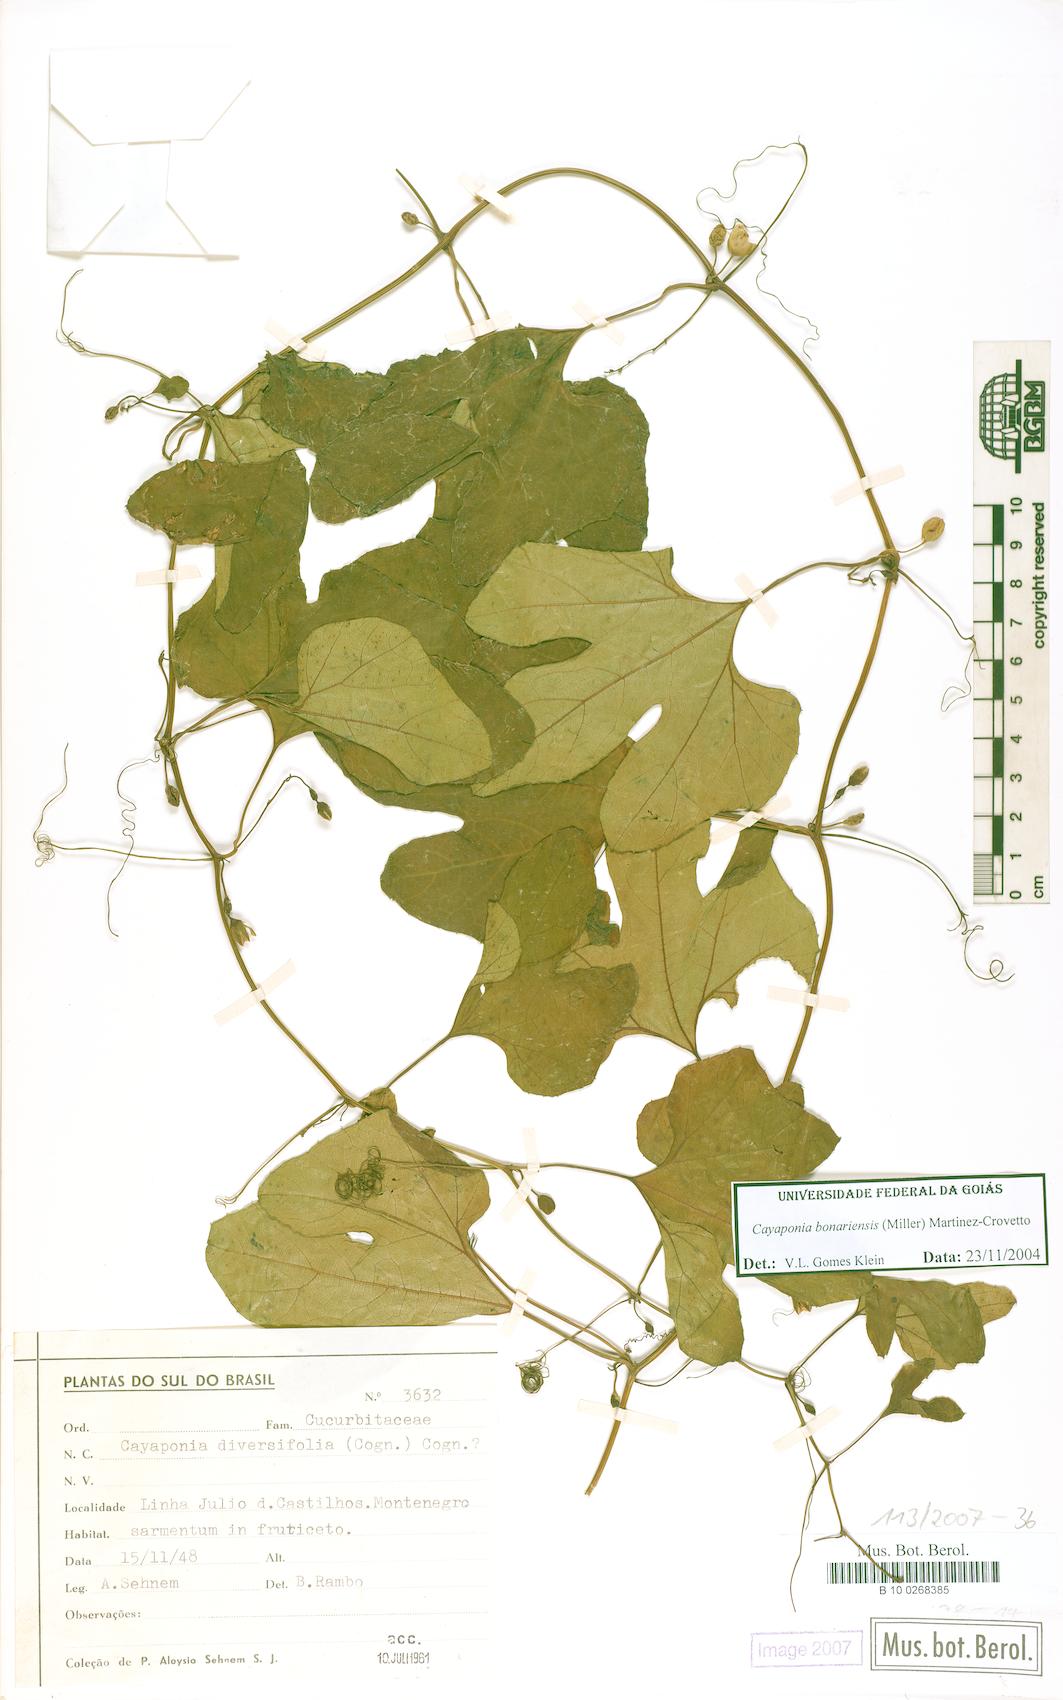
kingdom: Plantae
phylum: Tracheophyta
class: Magnoliopsida
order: Cucurbitales
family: Cucurbitaceae
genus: Cayaponia
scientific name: Cayaponia bonariensis
